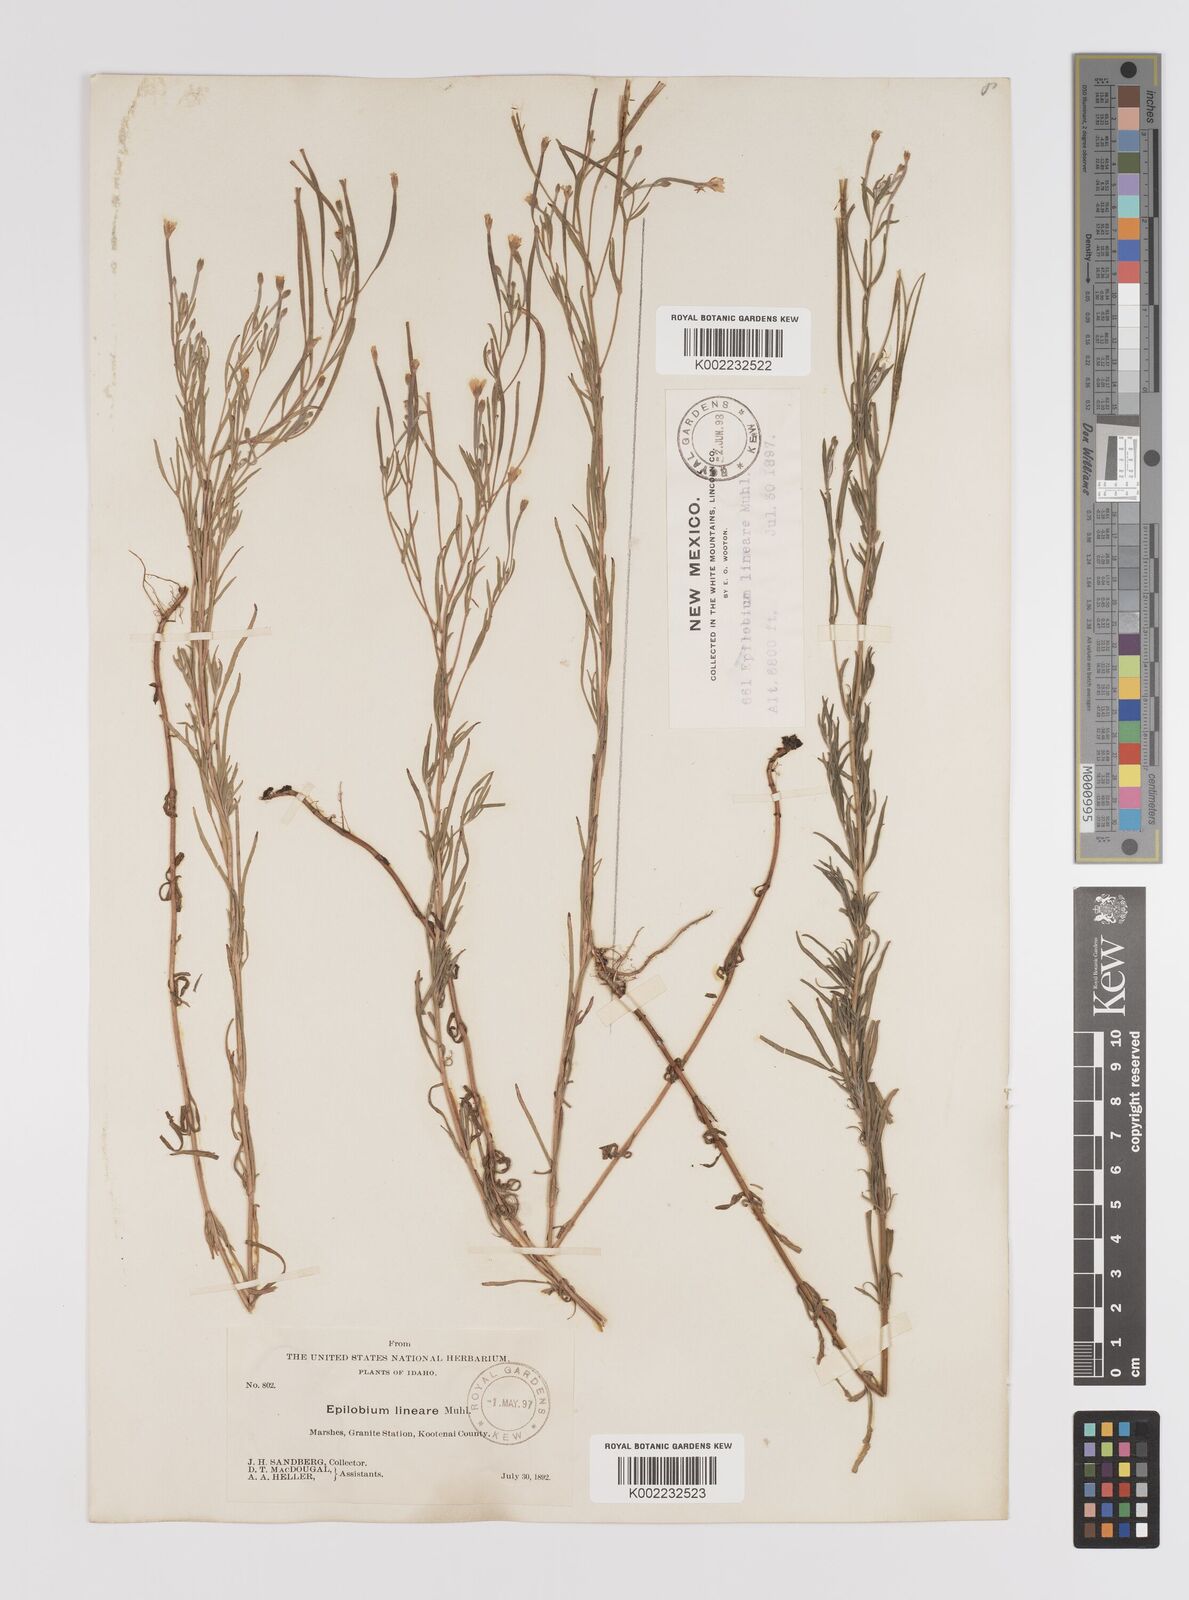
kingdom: Plantae
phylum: Tracheophyta
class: Magnoliopsida
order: Myrtales
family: Onagraceae
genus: Epilobium
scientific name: Epilobium palustre
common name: Marsh willowherb
